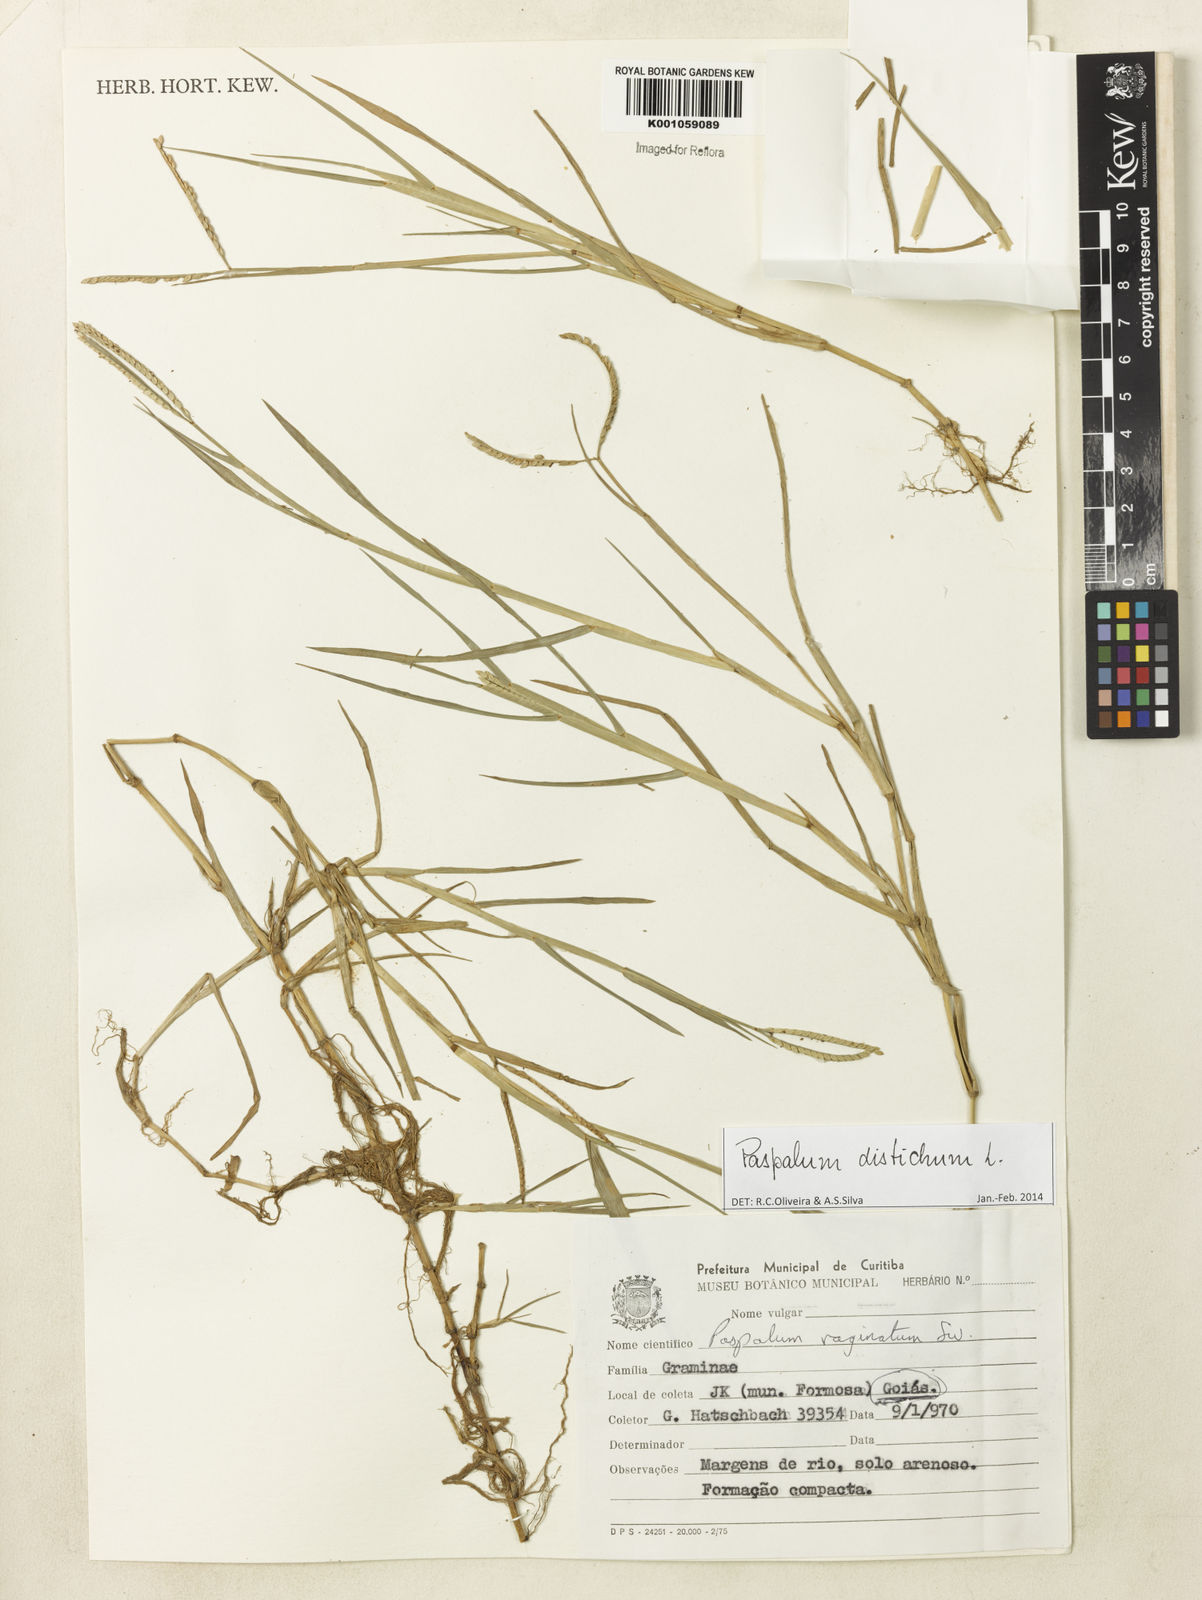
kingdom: Plantae
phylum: Tracheophyta
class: Liliopsida
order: Poales
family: Poaceae
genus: Paspalum
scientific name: Paspalum distichum
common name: Knotgrass
